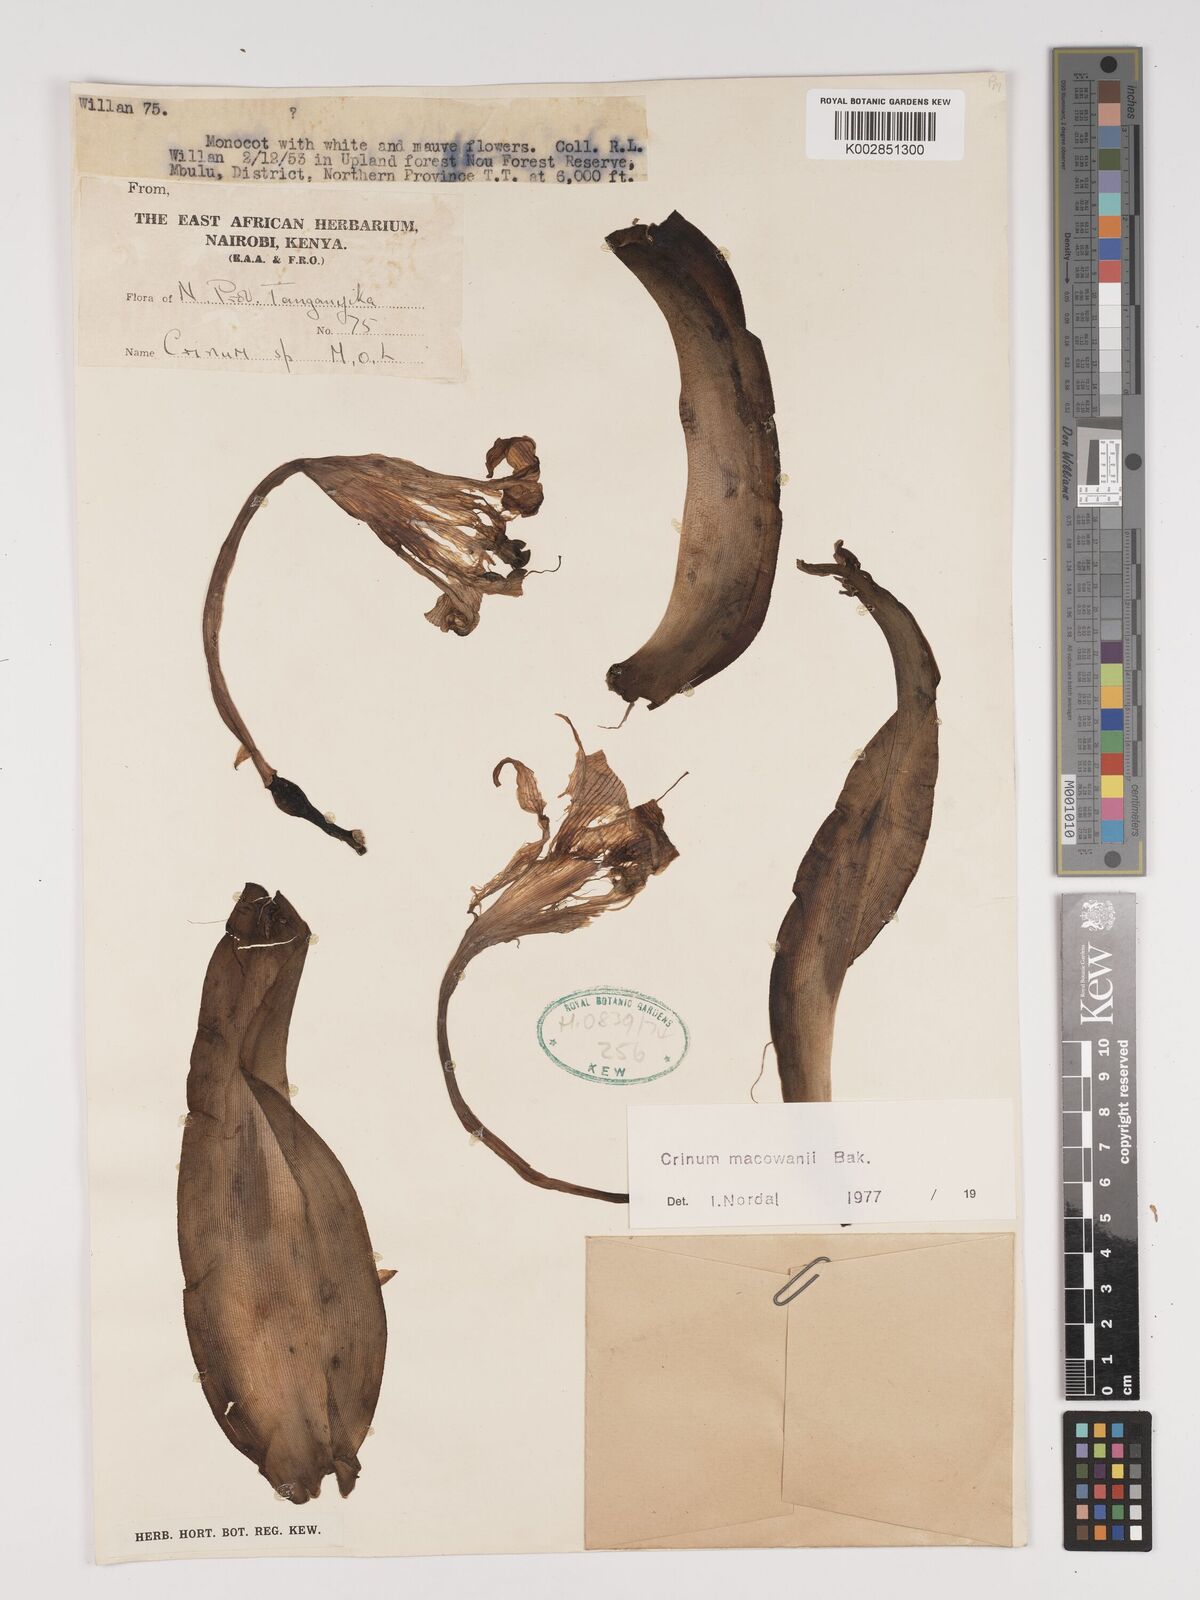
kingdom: Plantae
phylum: Tracheophyta
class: Liliopsida
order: Asparagales
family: Amaryllidaceae
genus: Crinum
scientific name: Crinum macowanii
